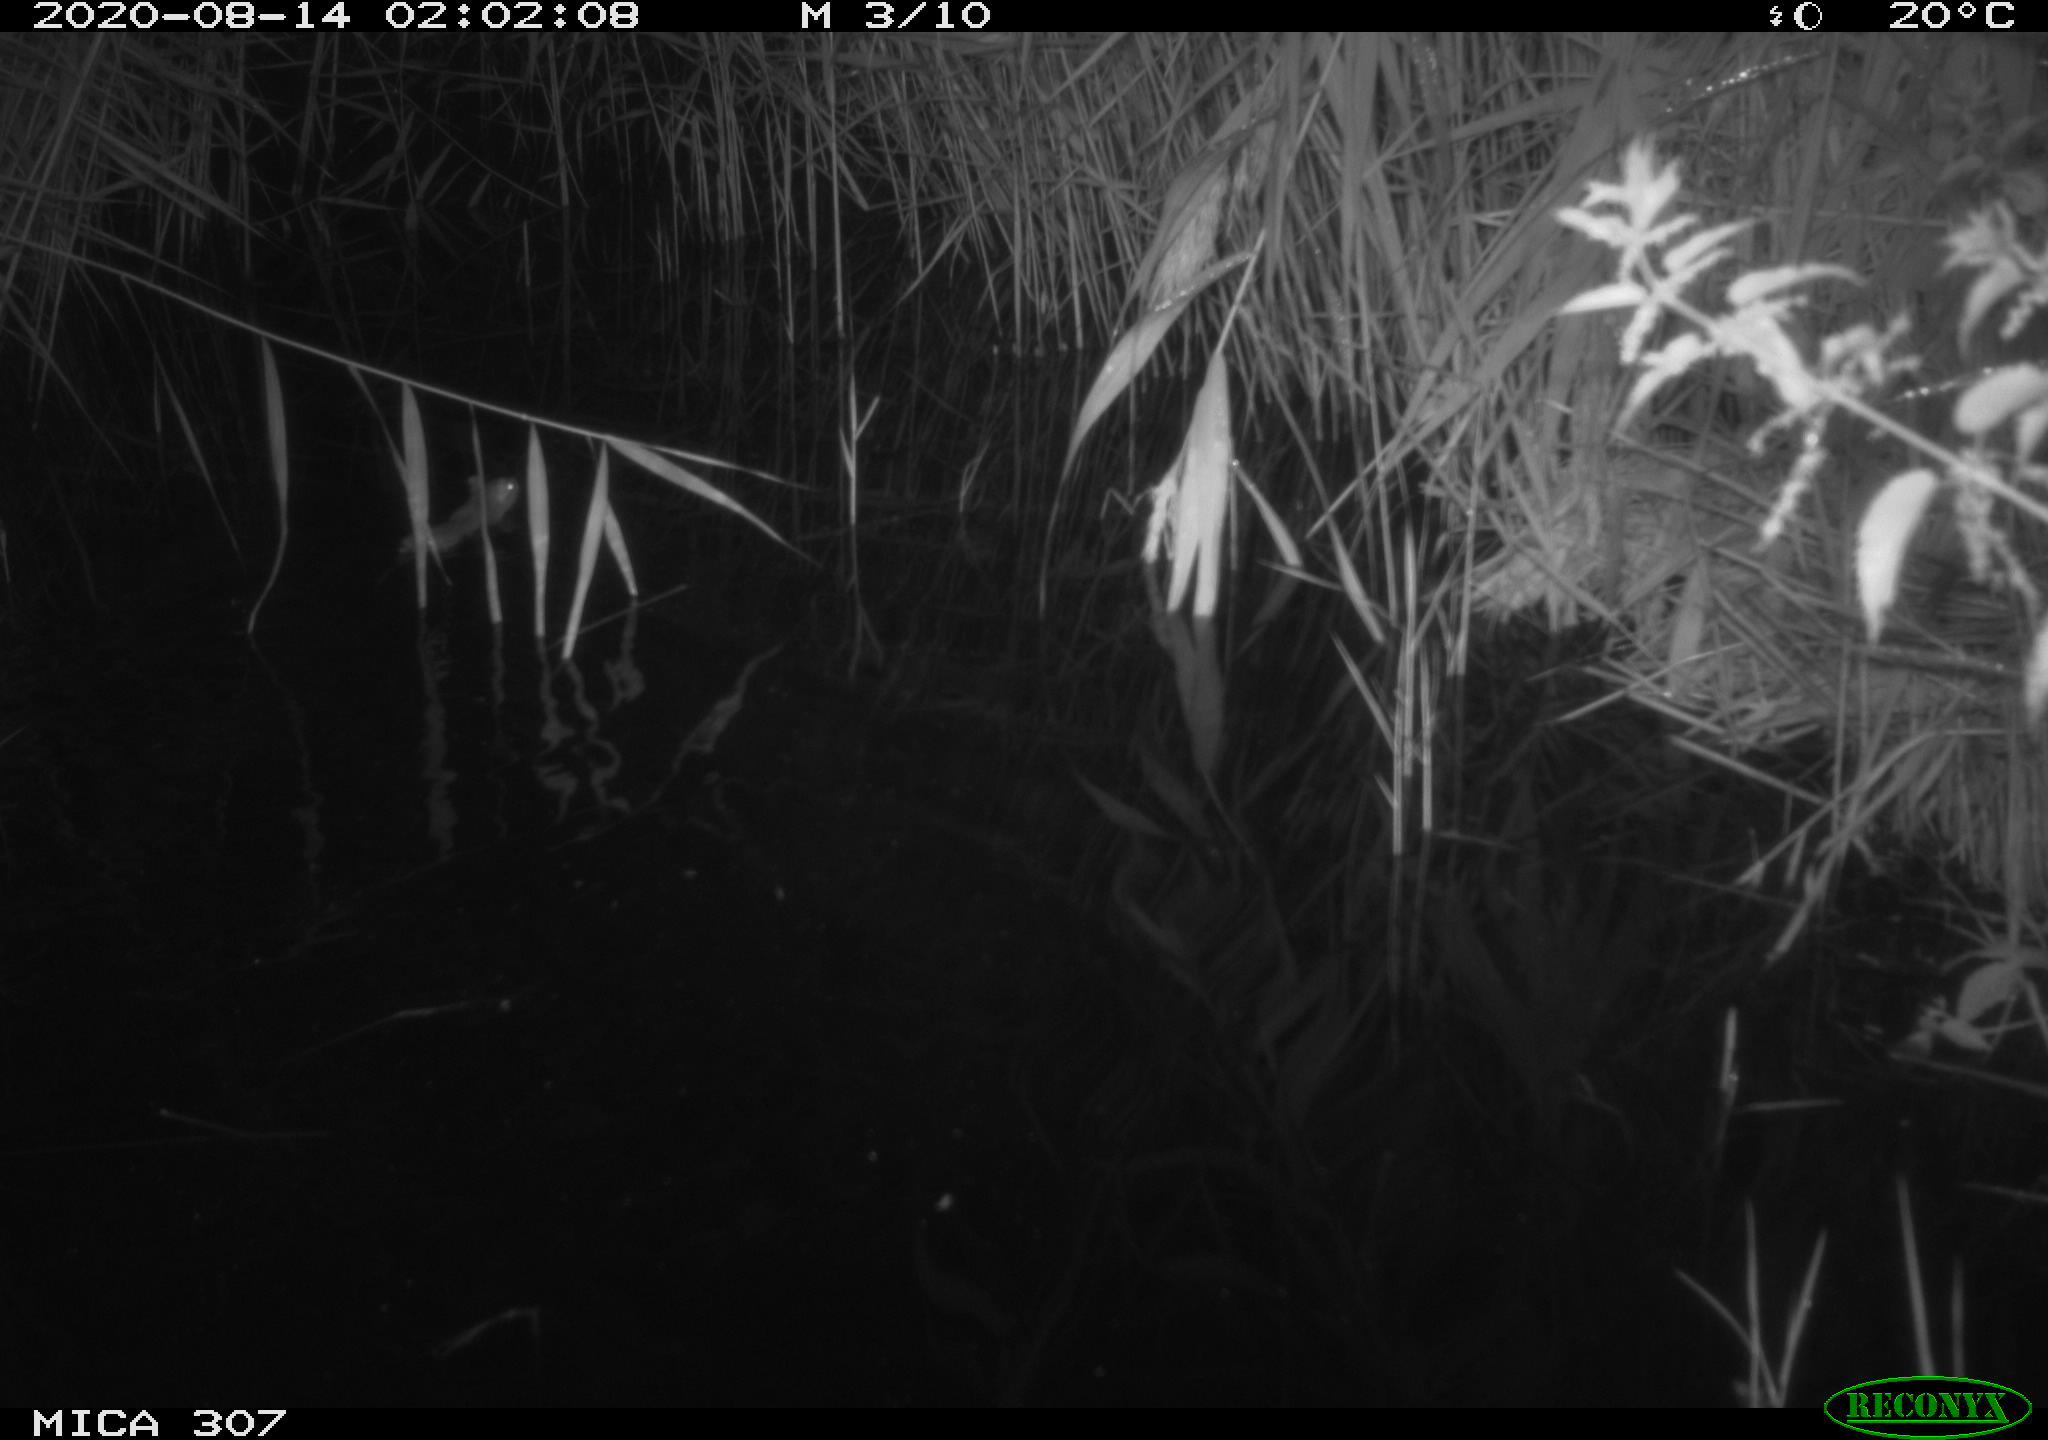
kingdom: Animalia
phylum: Chordata
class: Mammalia
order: Rodentia
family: Muridae
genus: Rattus
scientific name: Rattus norvegicus
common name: Brown rat
